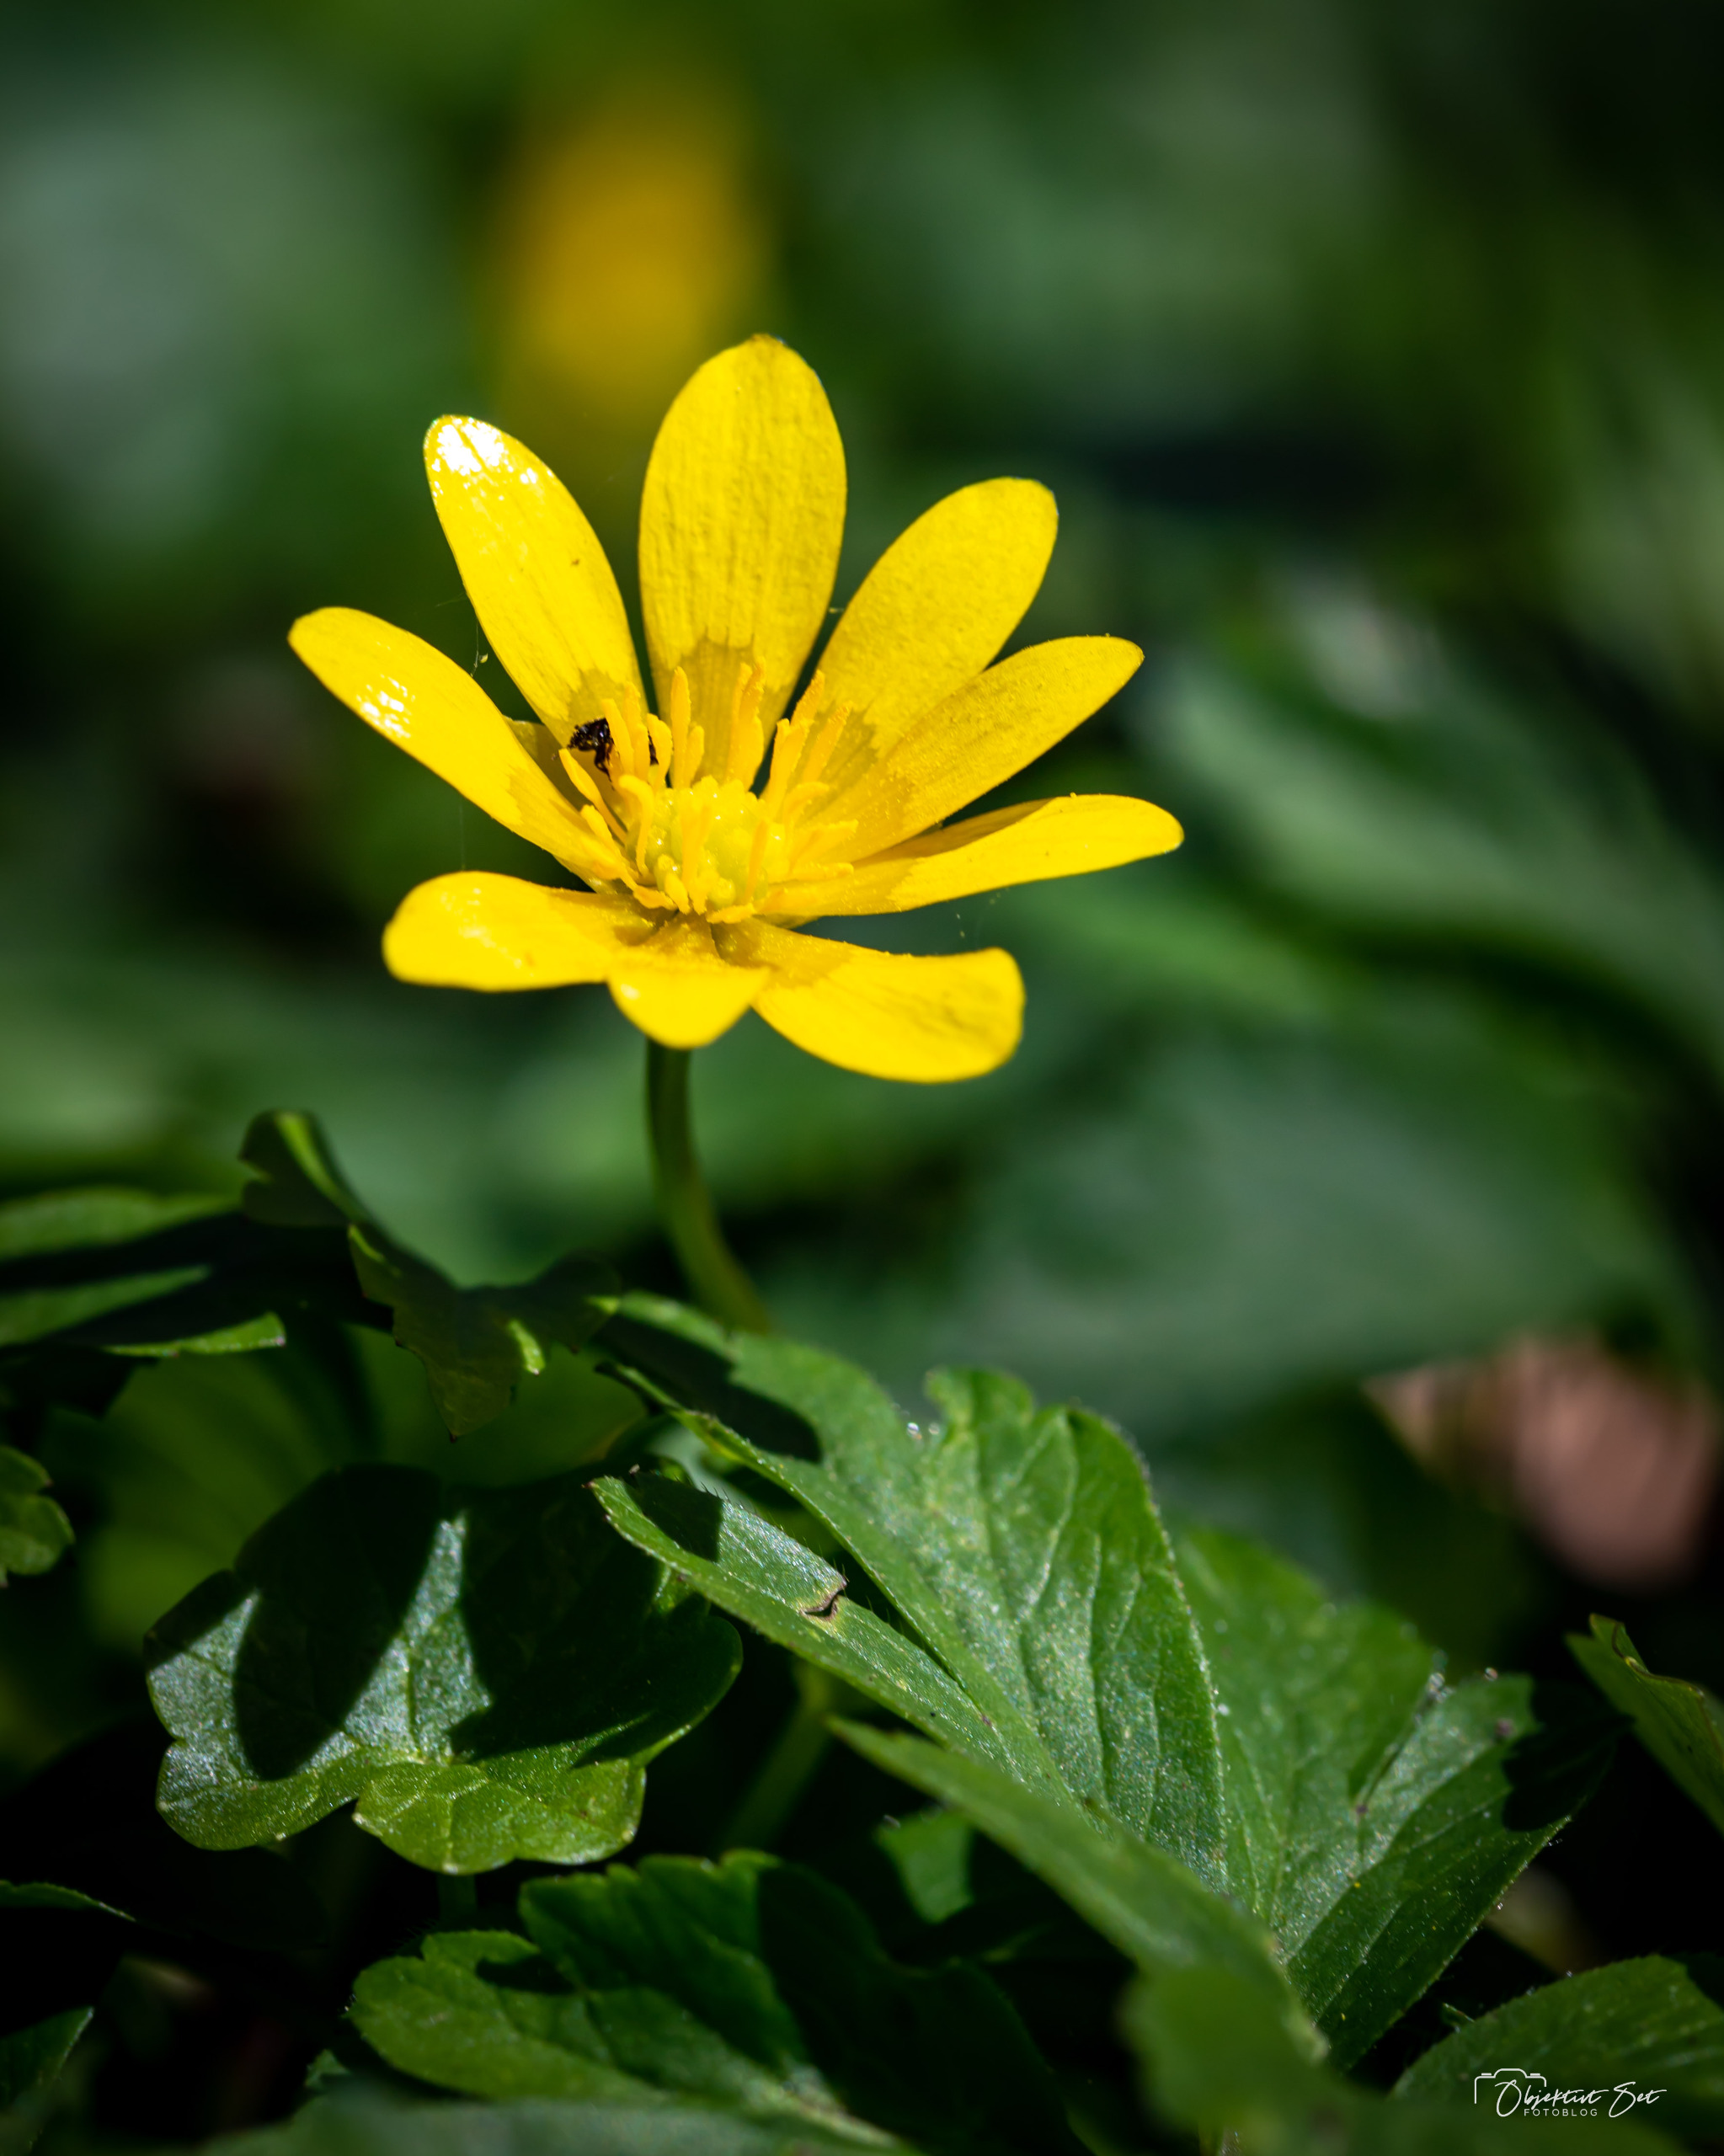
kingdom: Plantae
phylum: Tracheophyta
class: Magnoliopsida
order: Ranunculales
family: Ranunculaceae
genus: Ficaria
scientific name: Ficaria verna
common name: Vorterod
